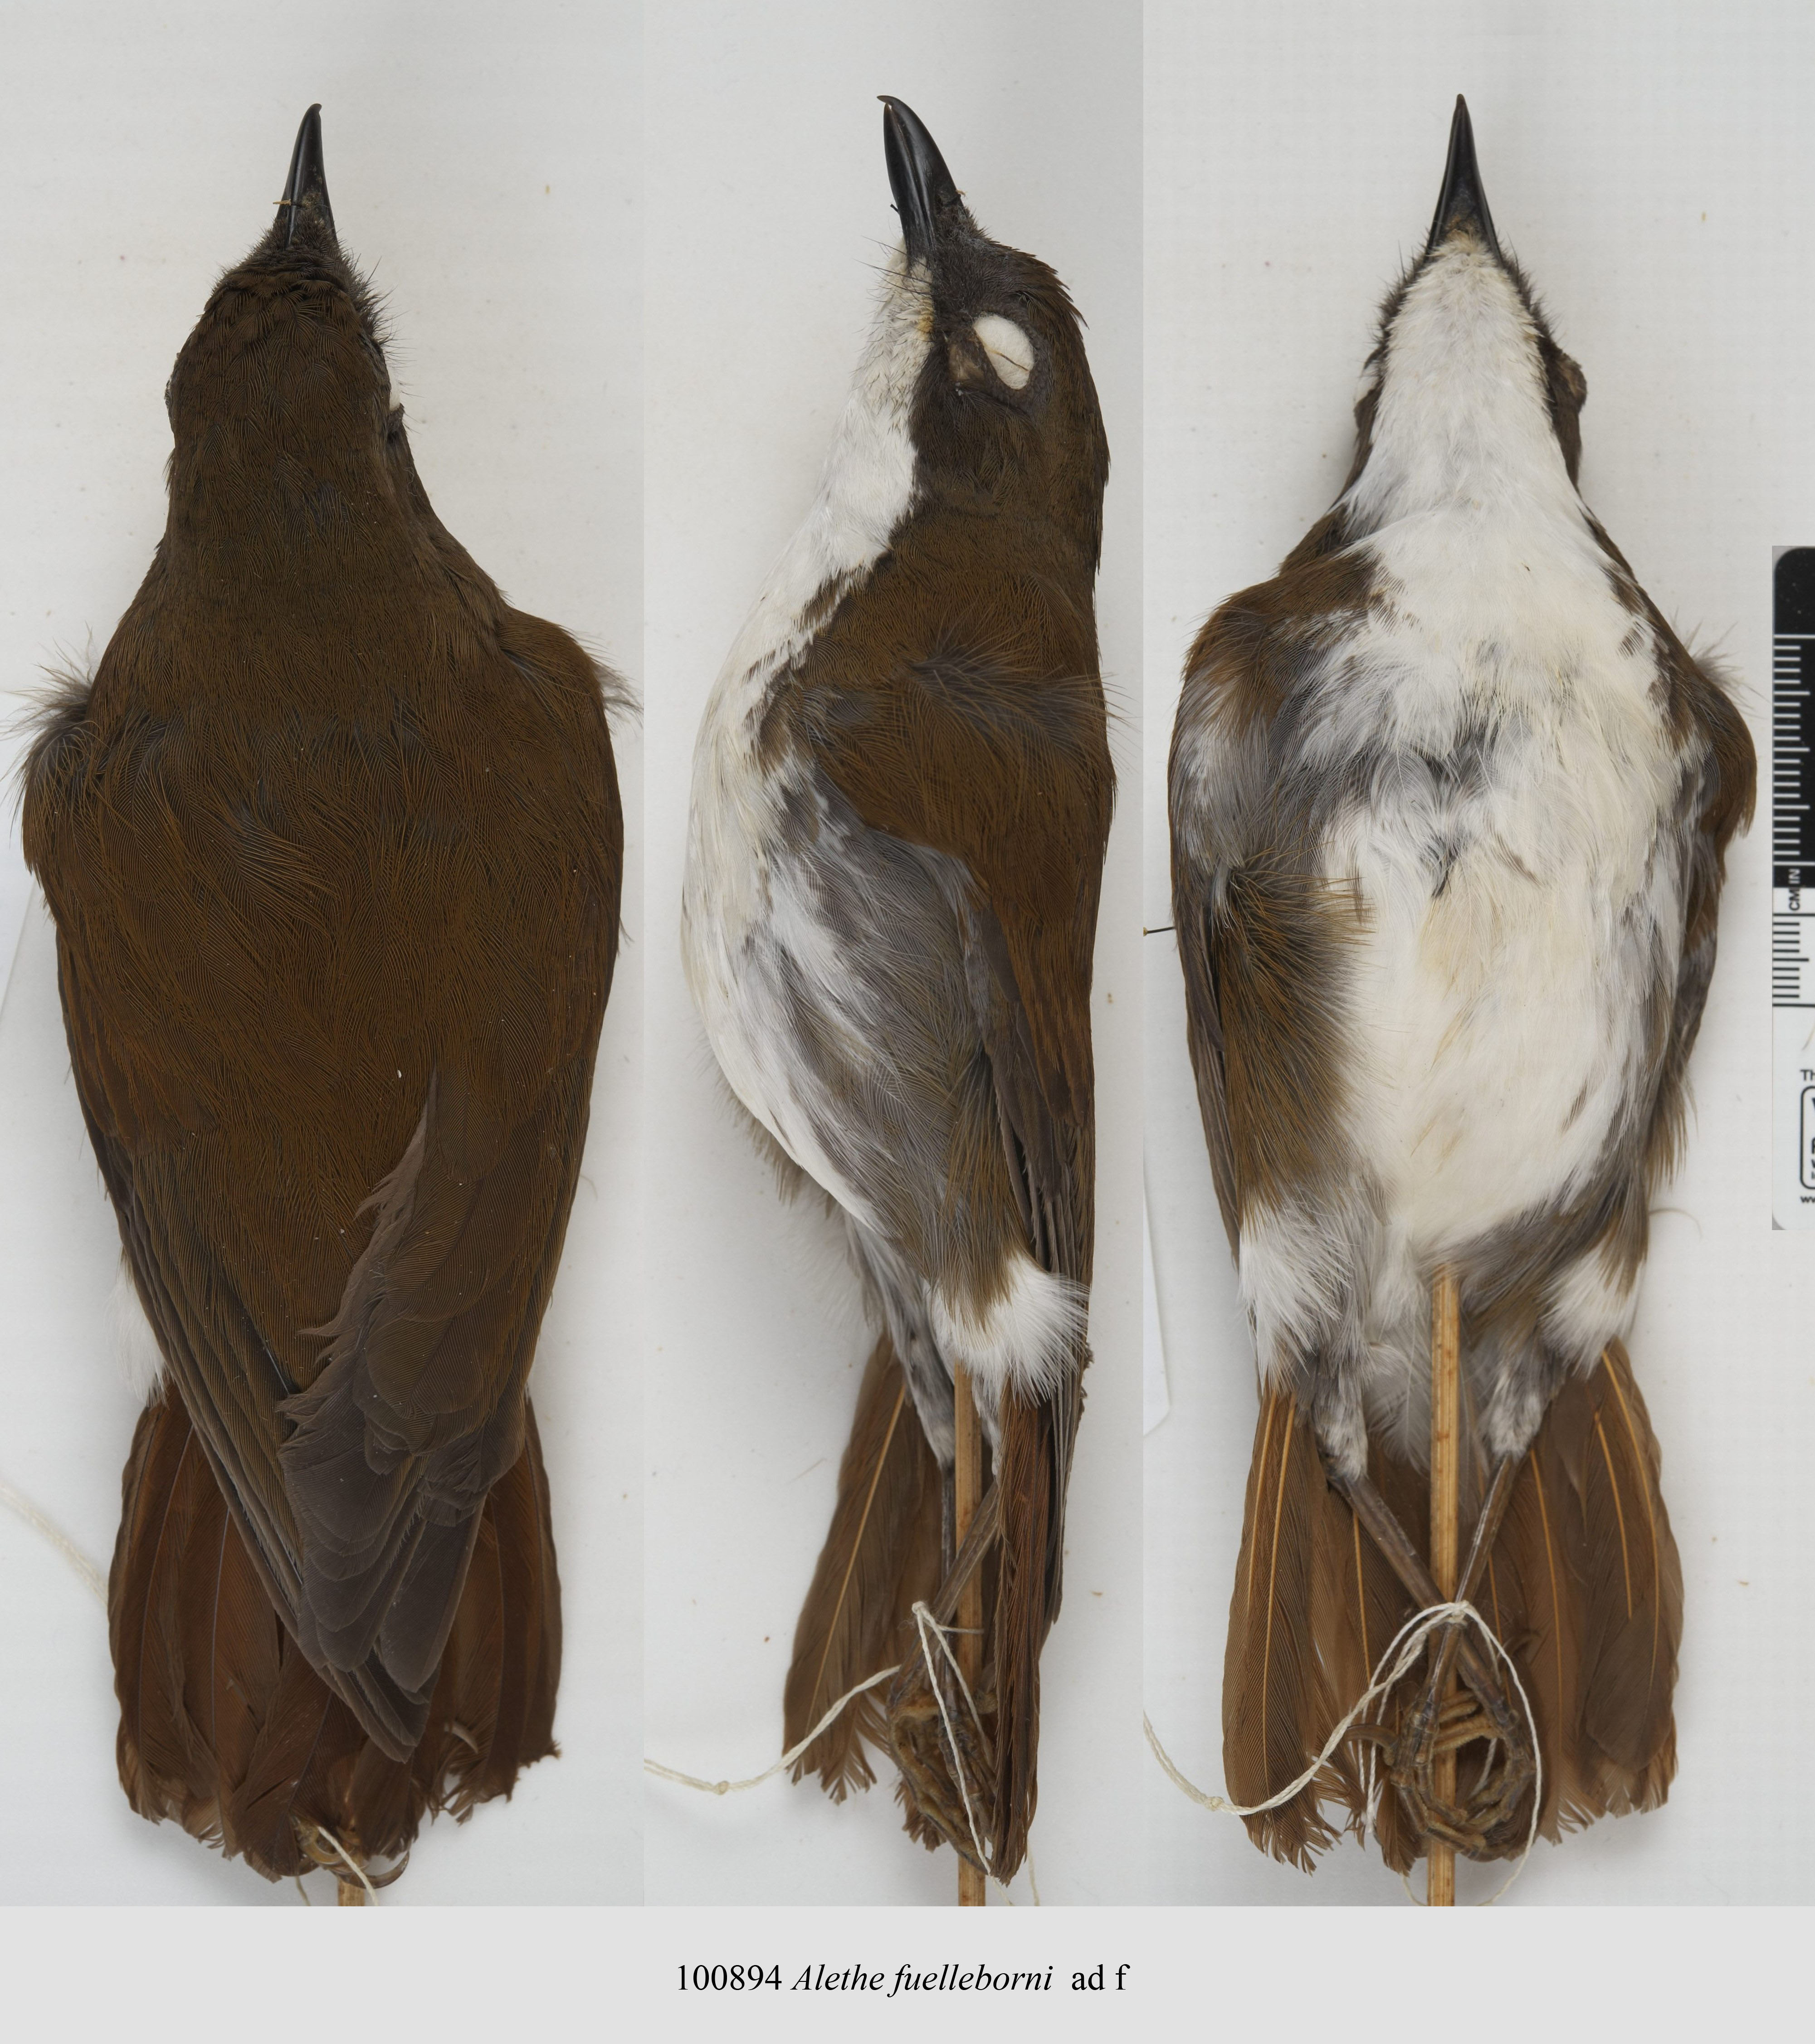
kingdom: Animalia
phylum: Chordata
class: Aves
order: Passeriformes
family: Turdidae
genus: Pseudalethe
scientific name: Pseudalethe fuelleborni
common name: White-chested alethe
